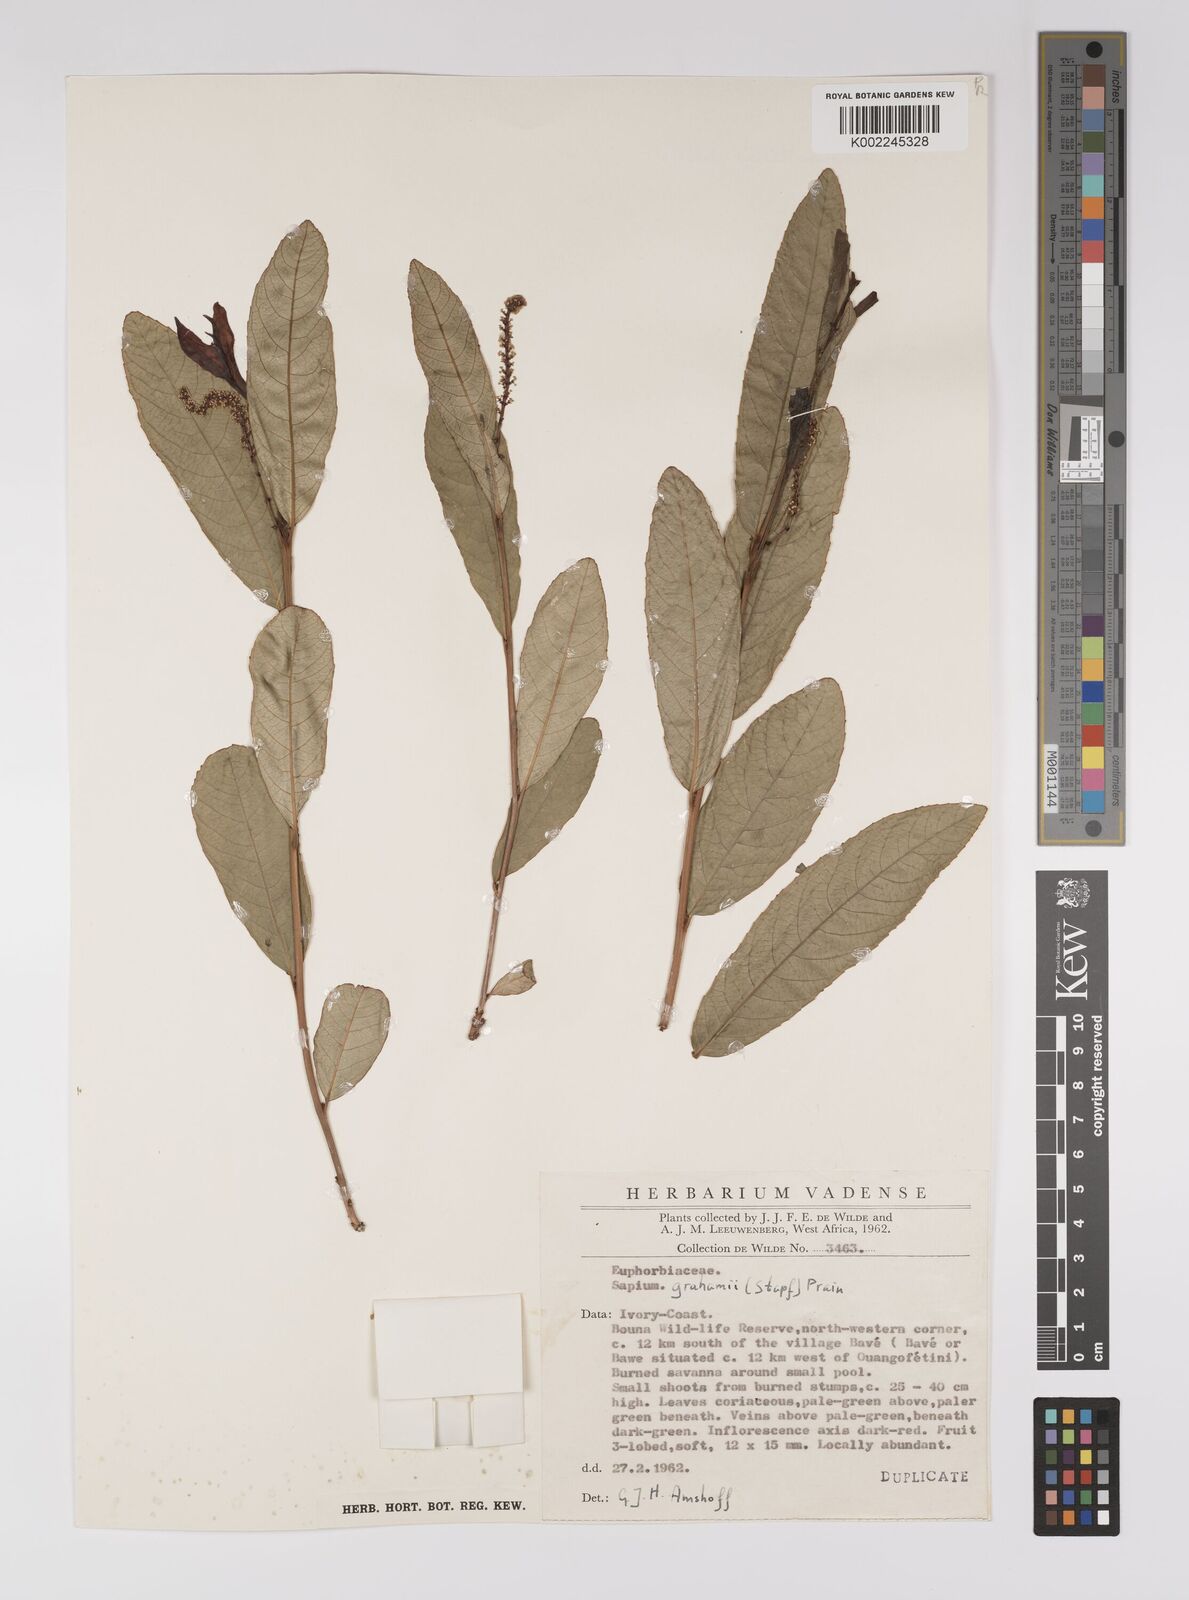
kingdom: Plantae
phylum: Tracheophyta
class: Magnoliopsida
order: Malpighiales
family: Euphorbiaceae
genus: Excoecaria
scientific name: Excoecaria grahamii
